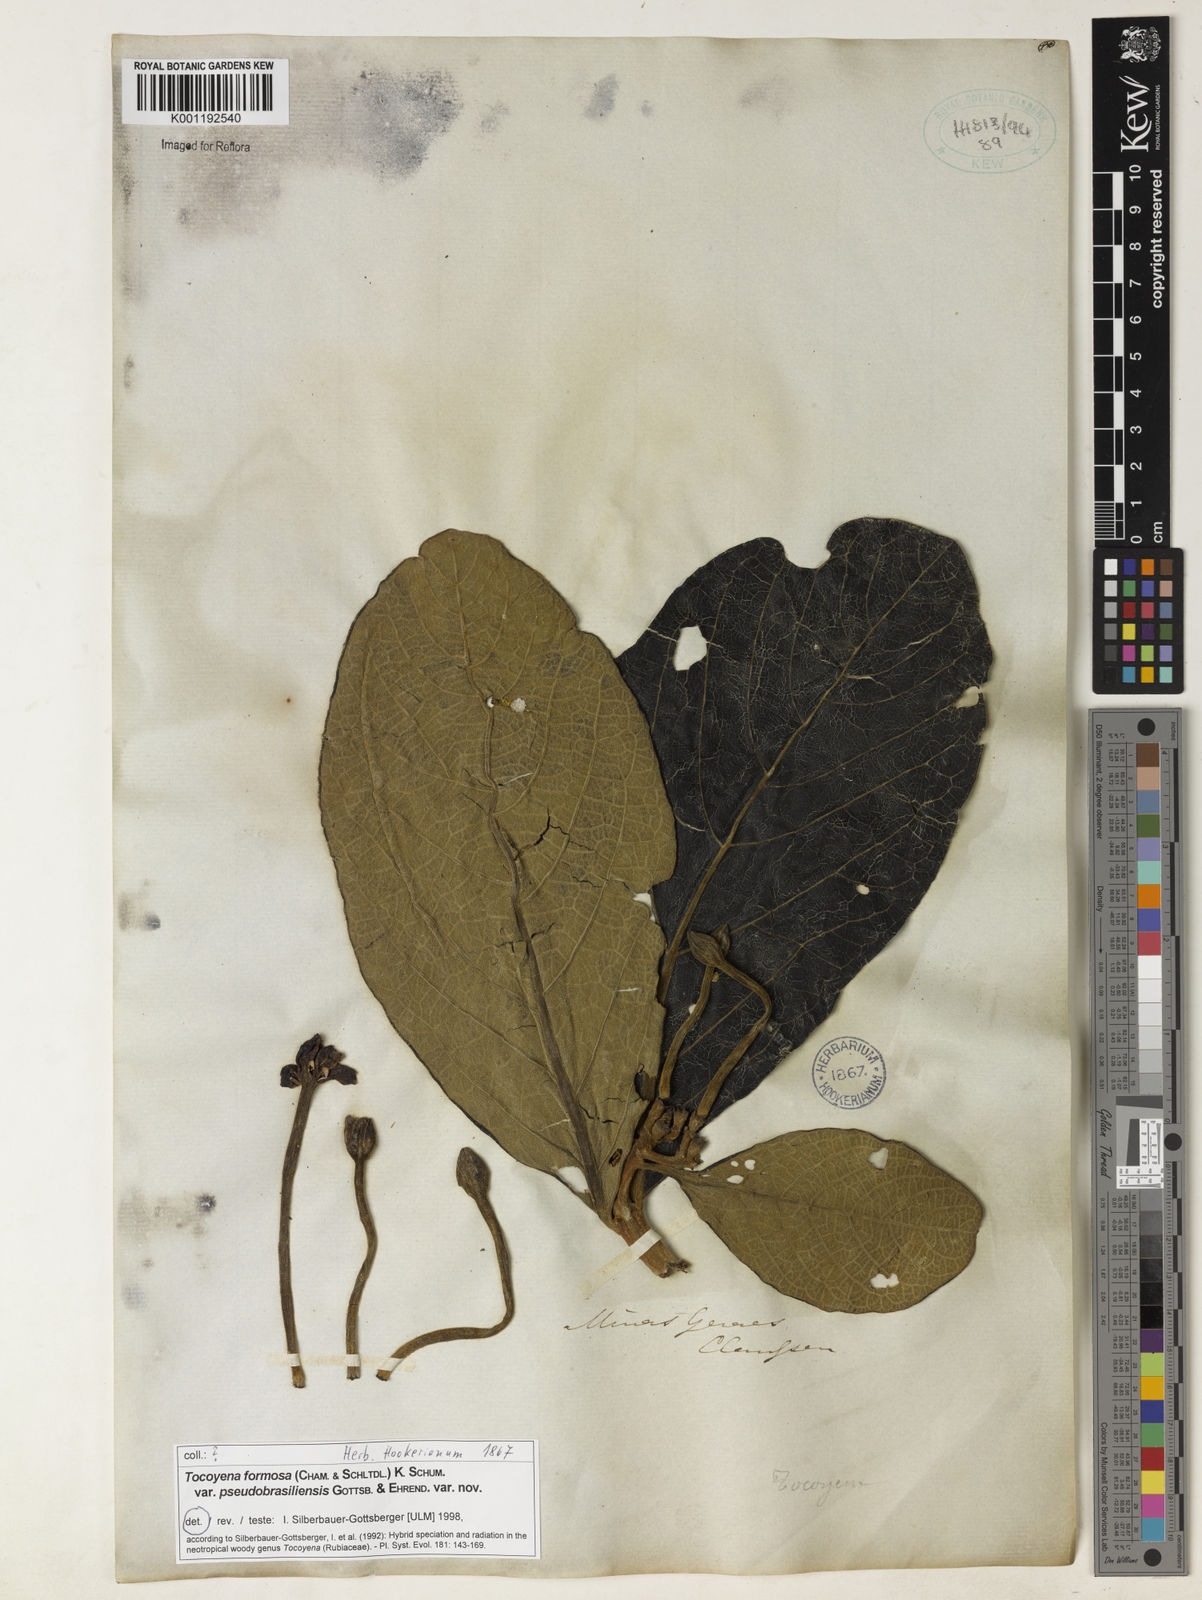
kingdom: Plantae
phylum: Tracheophyta
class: Magnoliopsida
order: Gentianales
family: Rubiaceae
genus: Tocoyena
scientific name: Tocoyena formosa
